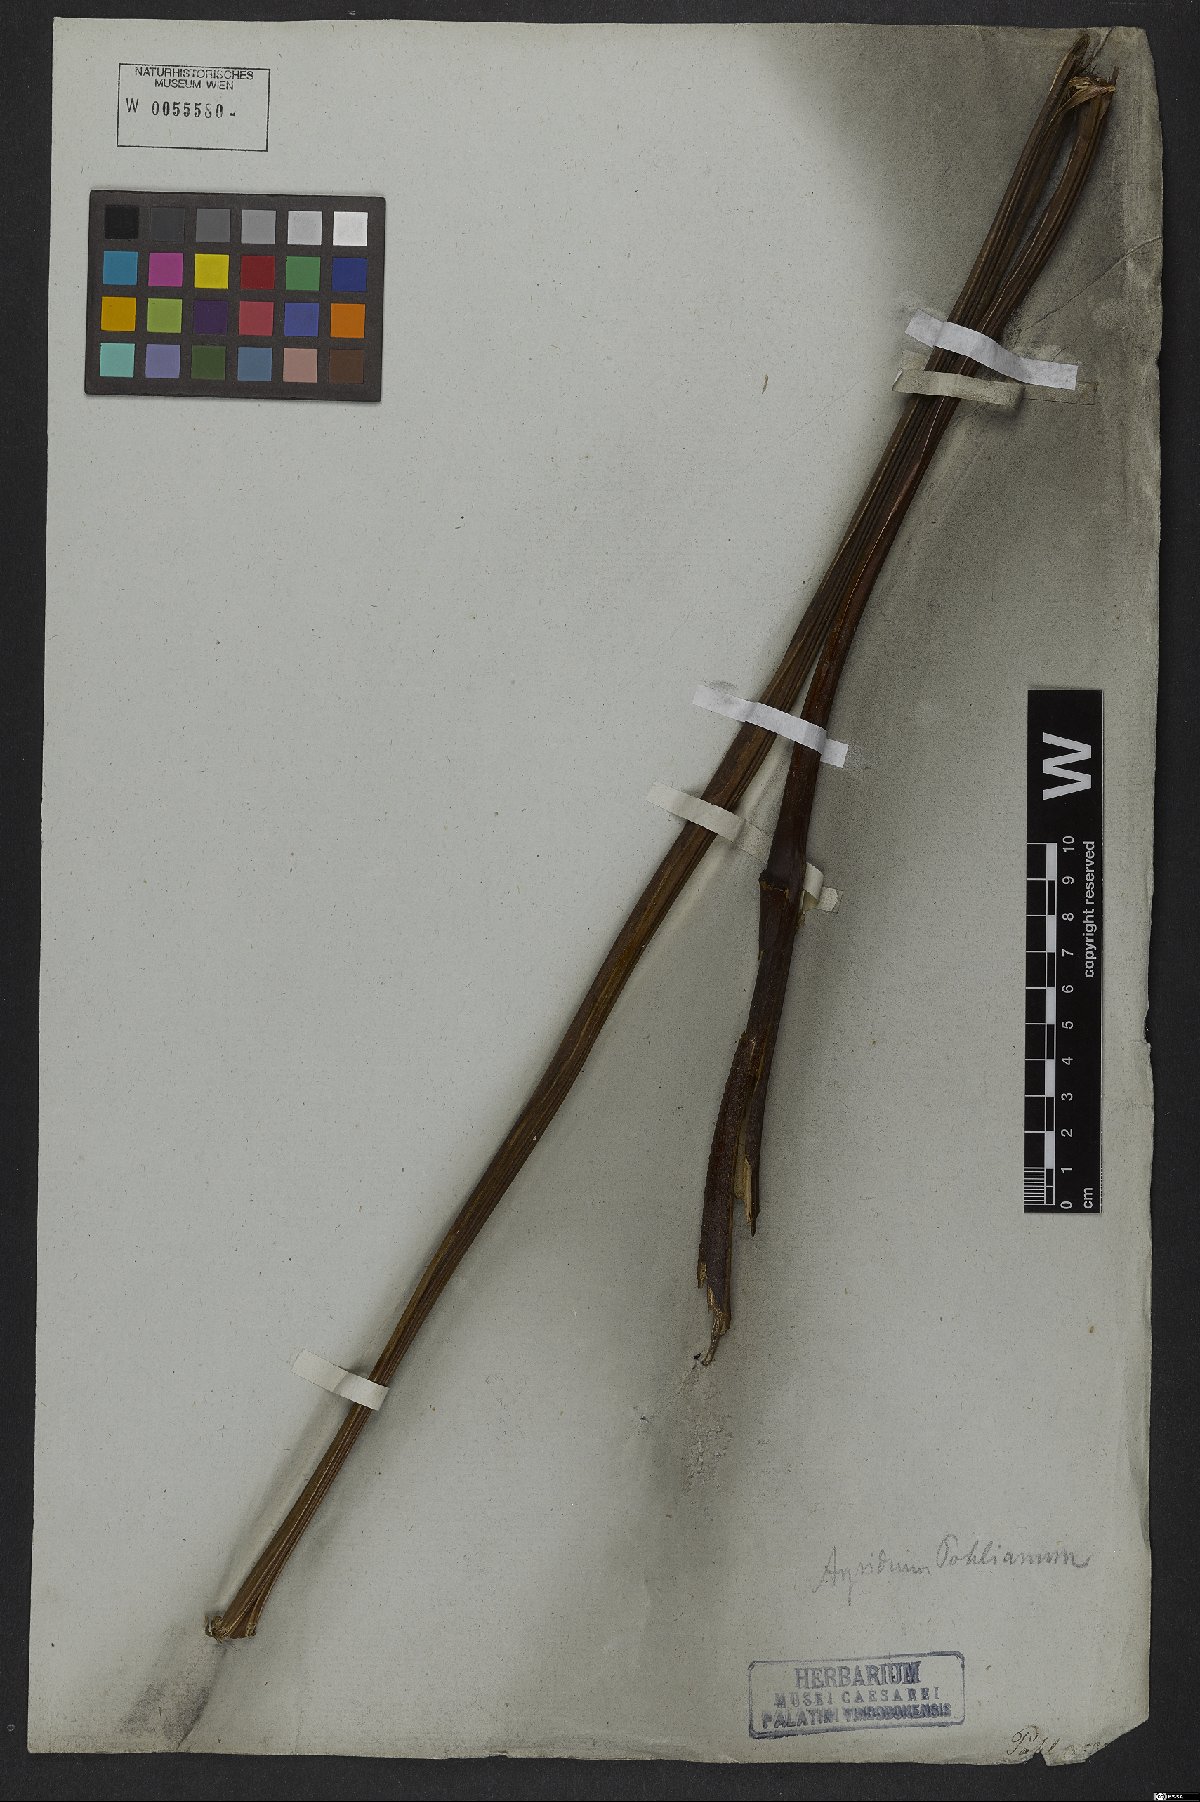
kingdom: Plantae
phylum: Tracheophyta
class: Polypodiopsida
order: Cyatheales
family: Cyatheaceae
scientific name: Cyatheaceae
